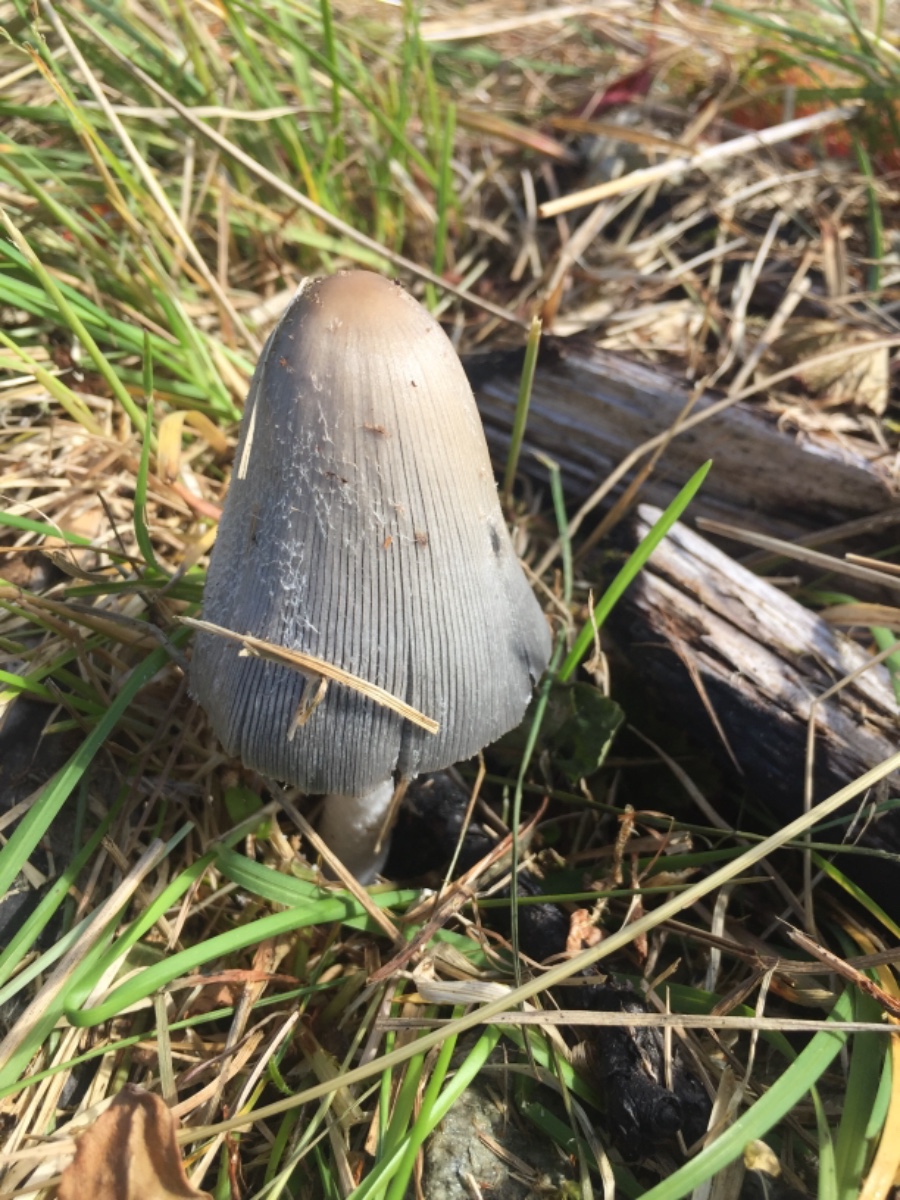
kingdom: Fungi
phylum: Basidiomycota
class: Agaricomycetes
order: Agaricales
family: Psathyrellaceae
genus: Coprinopsis
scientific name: Coprinopsis jonesii
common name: spættet blækhat
